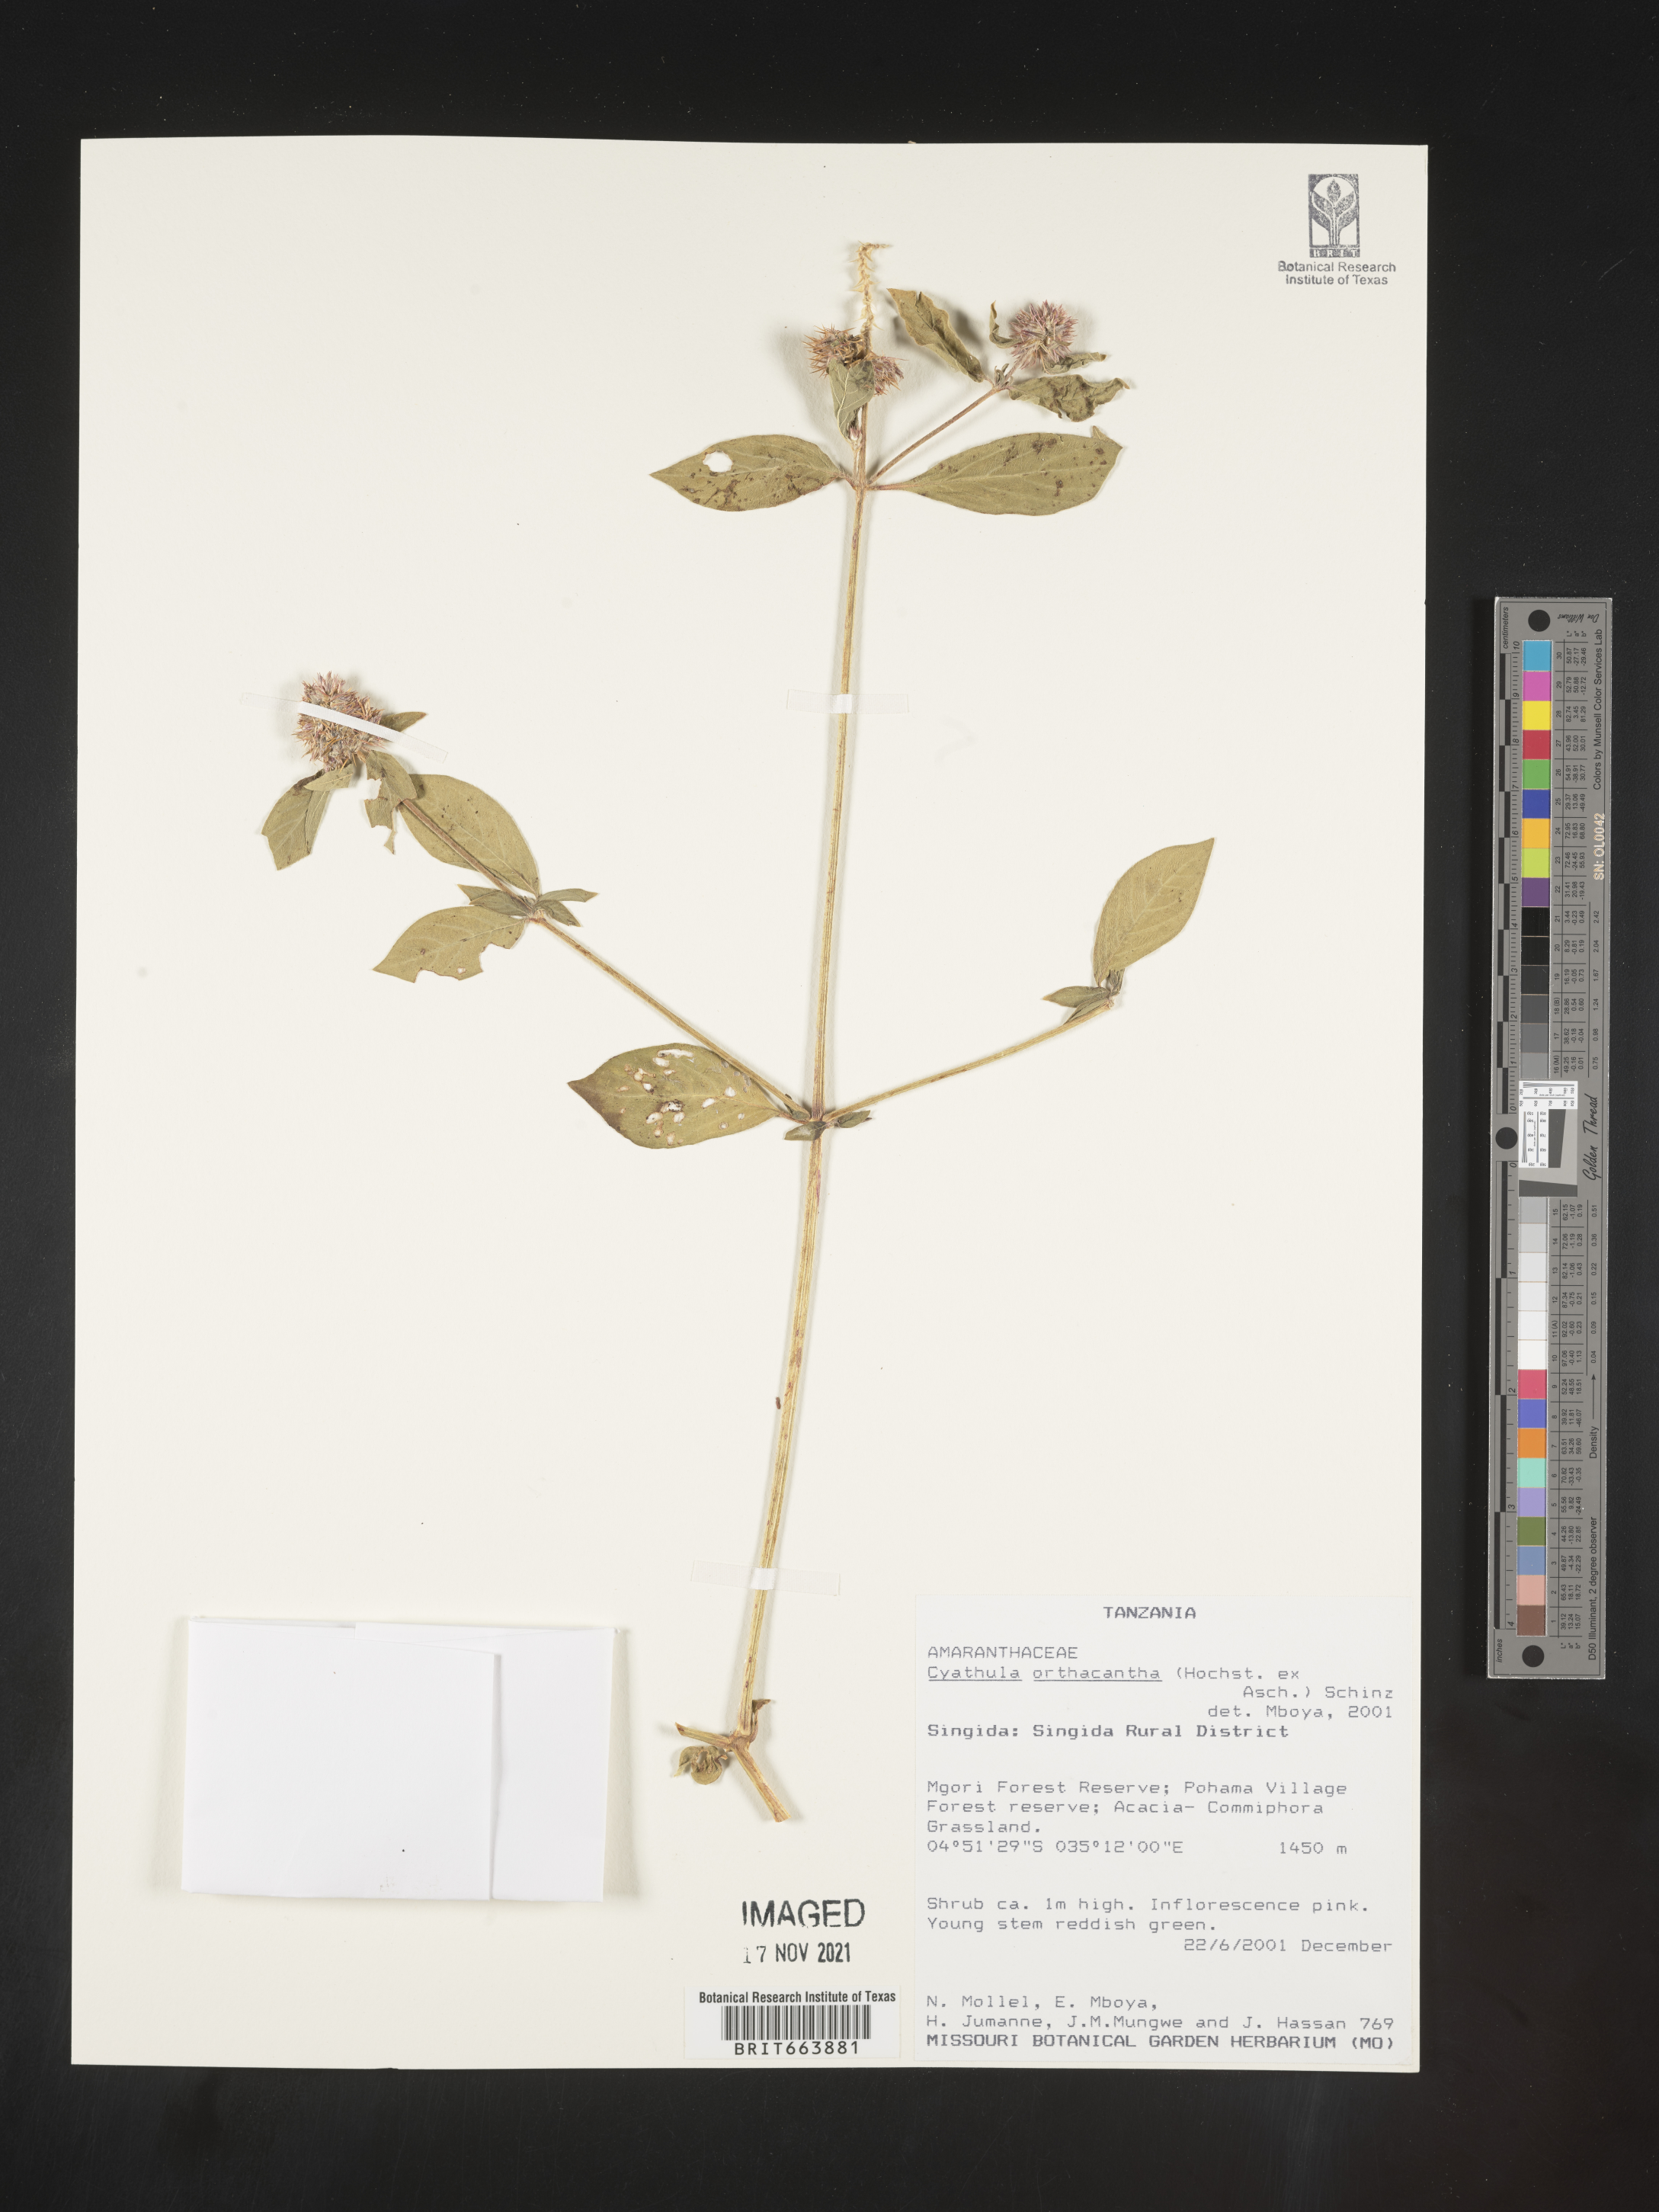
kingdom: Plantae
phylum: Tracheophyta
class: Magnoliopsida
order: Caryophyllales
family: Amaranthaceae
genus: Cyathula
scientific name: Cyathula
